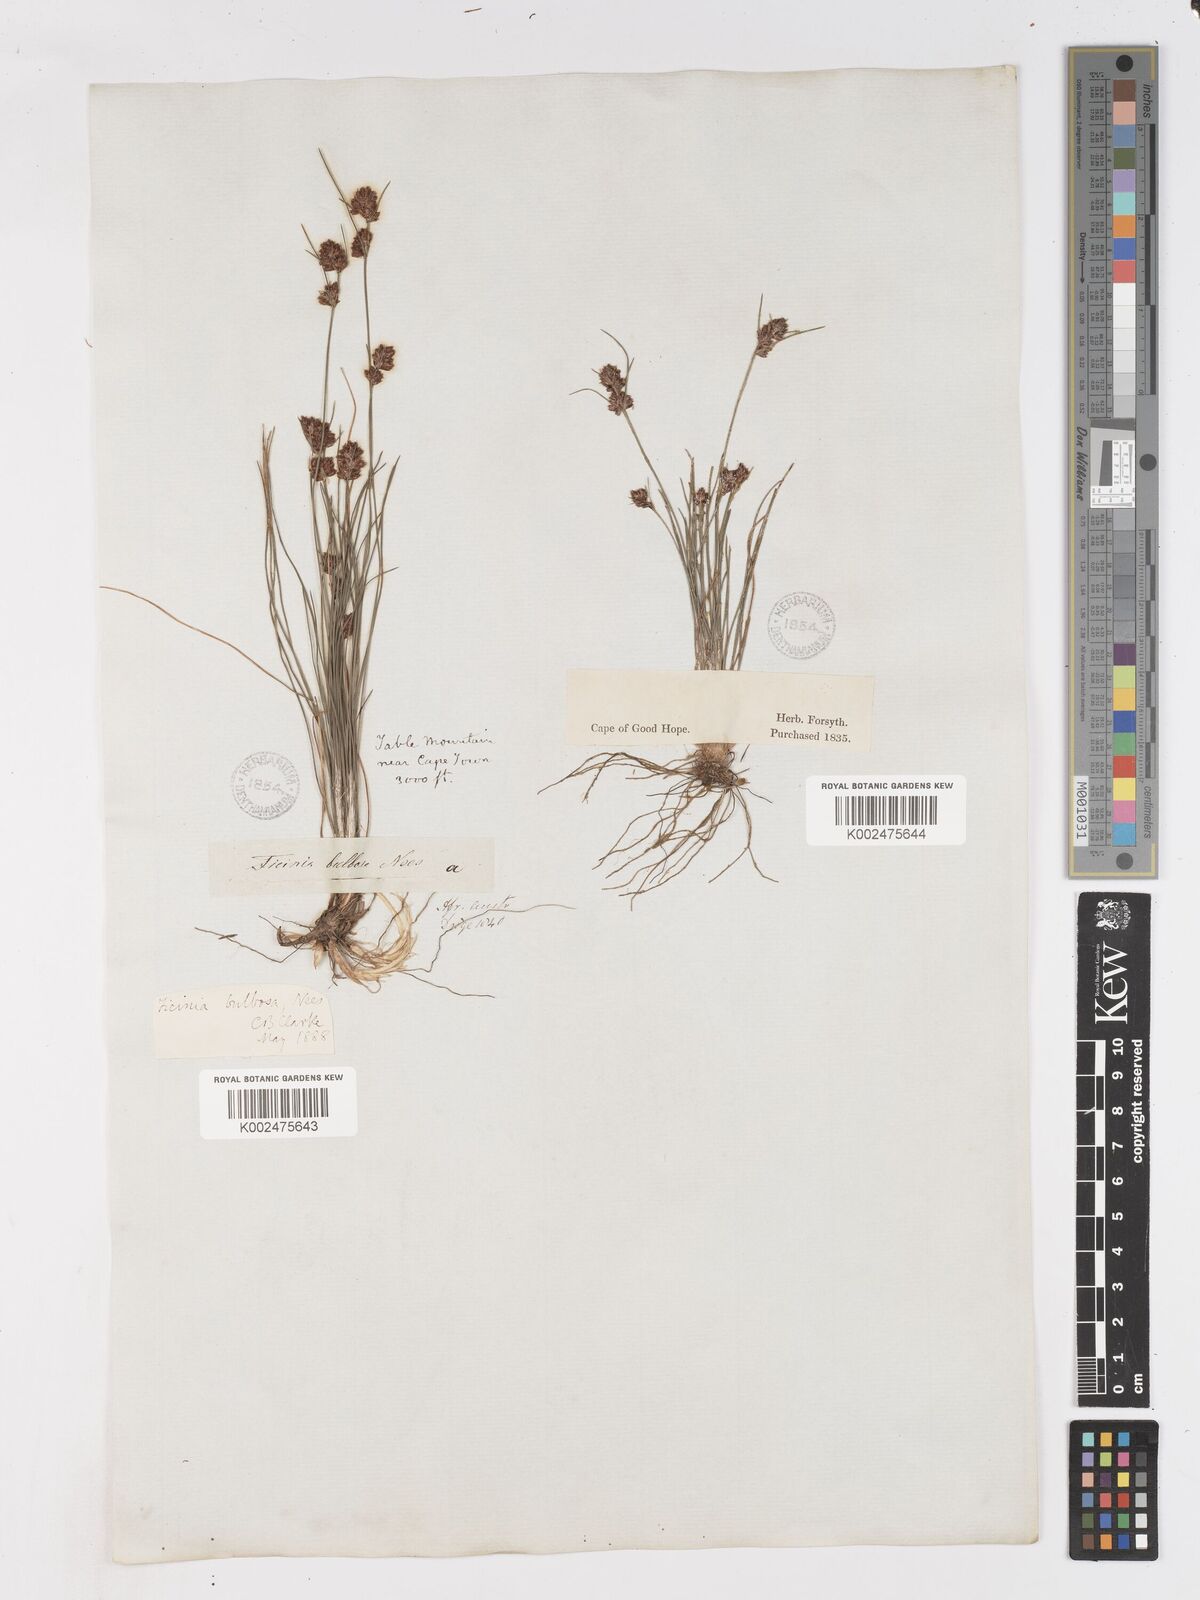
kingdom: Plantae
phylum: Tracheophyta
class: Liliopsida
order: Poales
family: Cyperaceae
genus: Ficinia
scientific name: Ficinia bulbosa
